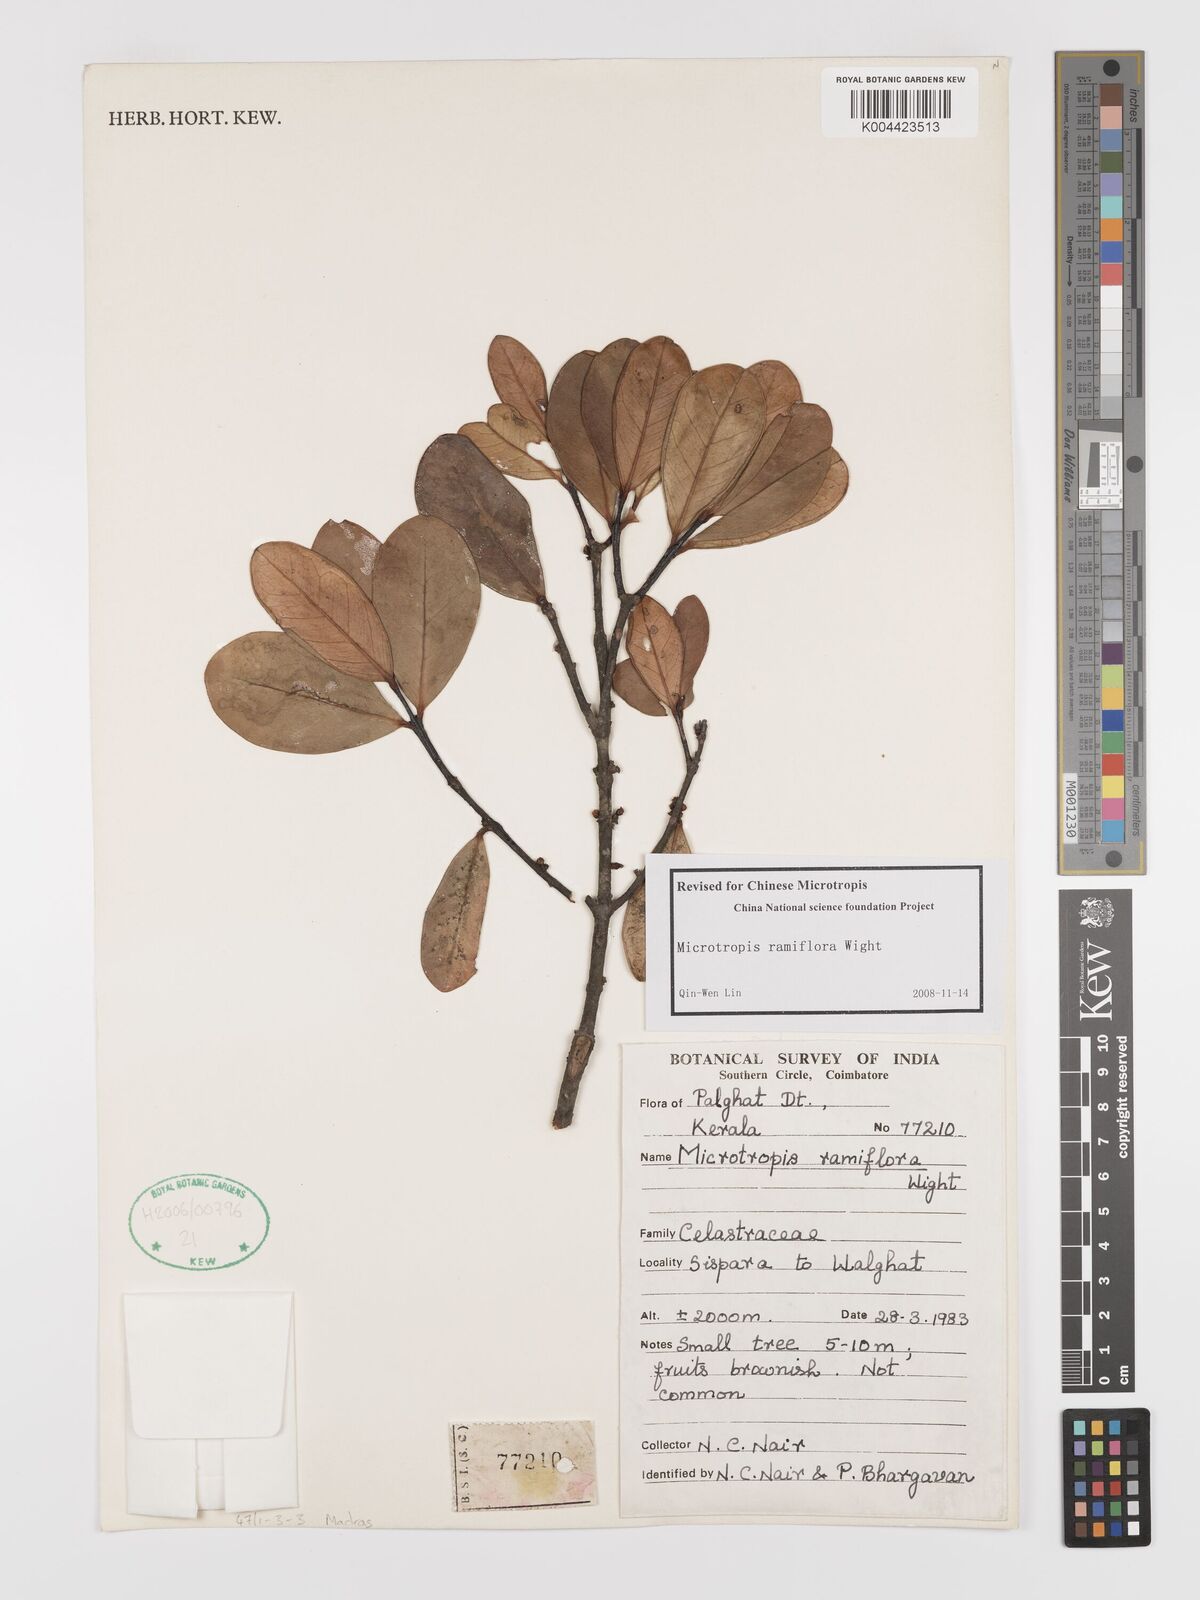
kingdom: Plantae
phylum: Tracheophyta
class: Magnoliopsida
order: Celastrales
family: Celastraceae
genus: Microtropis
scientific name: Microtropis ramiflora
